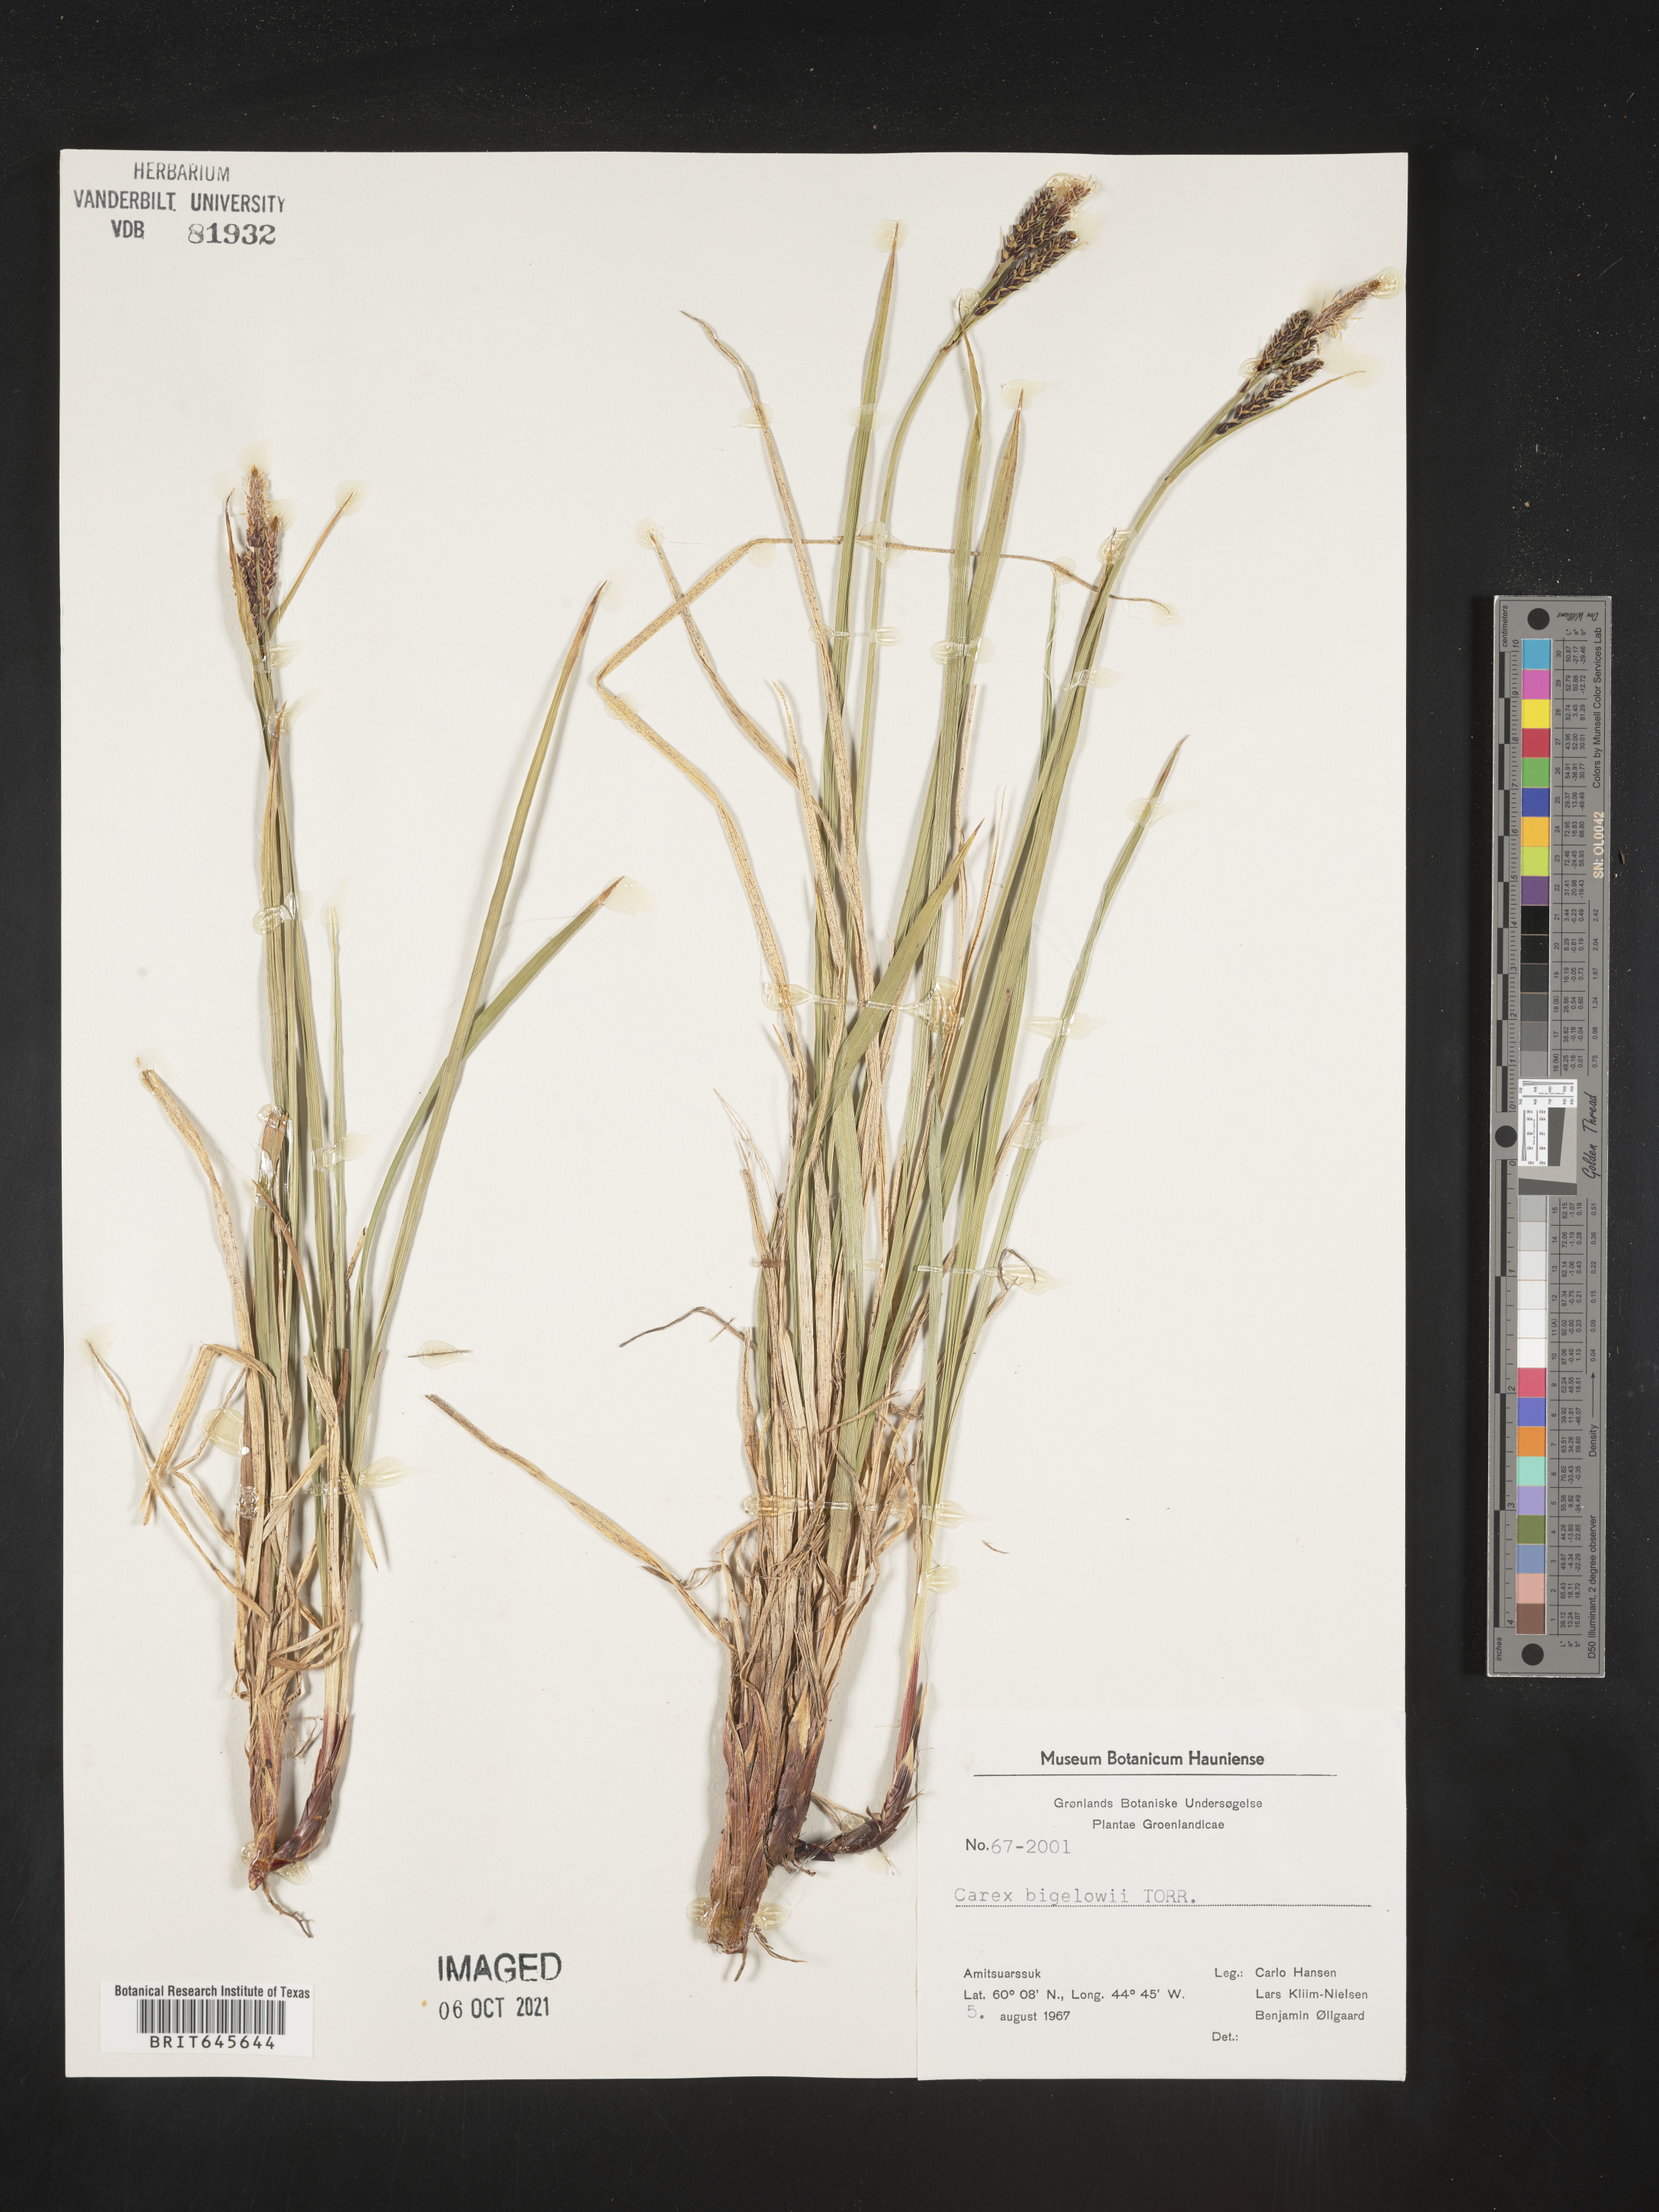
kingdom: Plantae
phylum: Tracheophyta
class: Liliopsida
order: Poales
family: Cyperaceae
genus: Carex
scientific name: Carex bigelowii
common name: Stiff sedge
